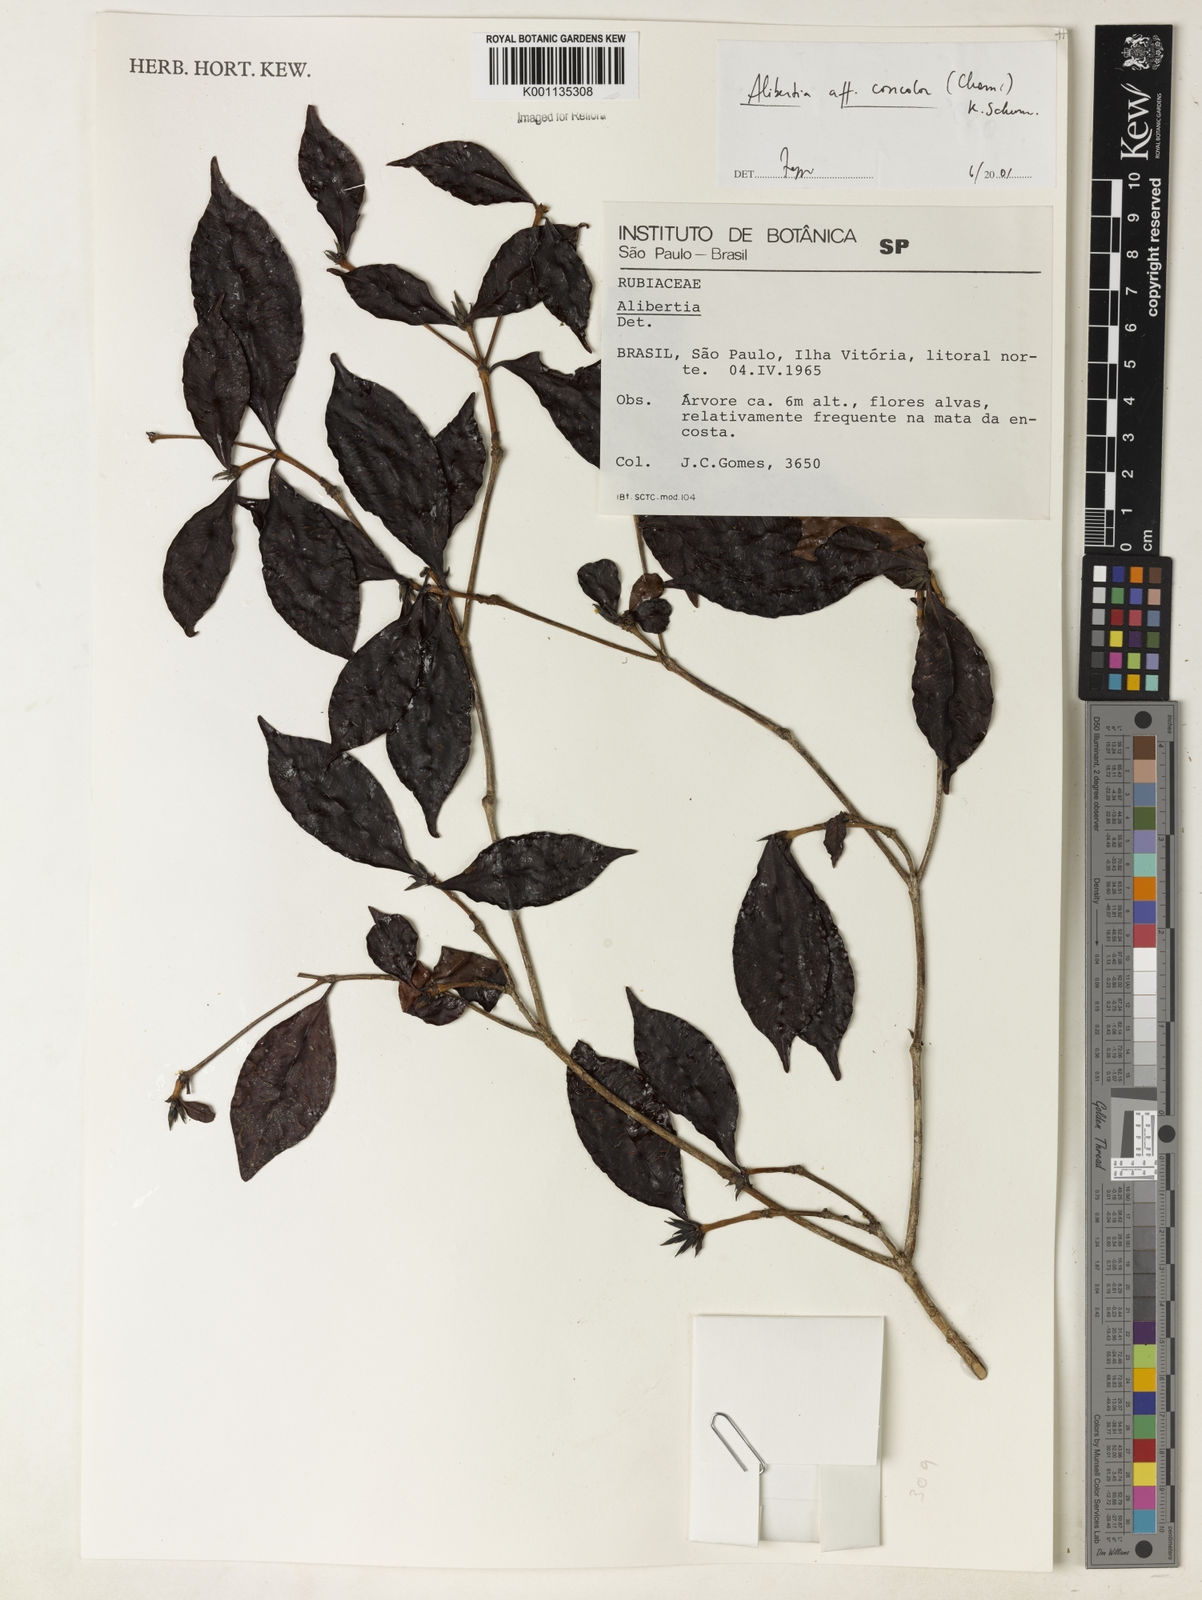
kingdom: Plantae
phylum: Tracheophyta
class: Magnoliopsida
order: Gentianales
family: Rubiaceae
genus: Cordiera
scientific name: Cordiera concolor
